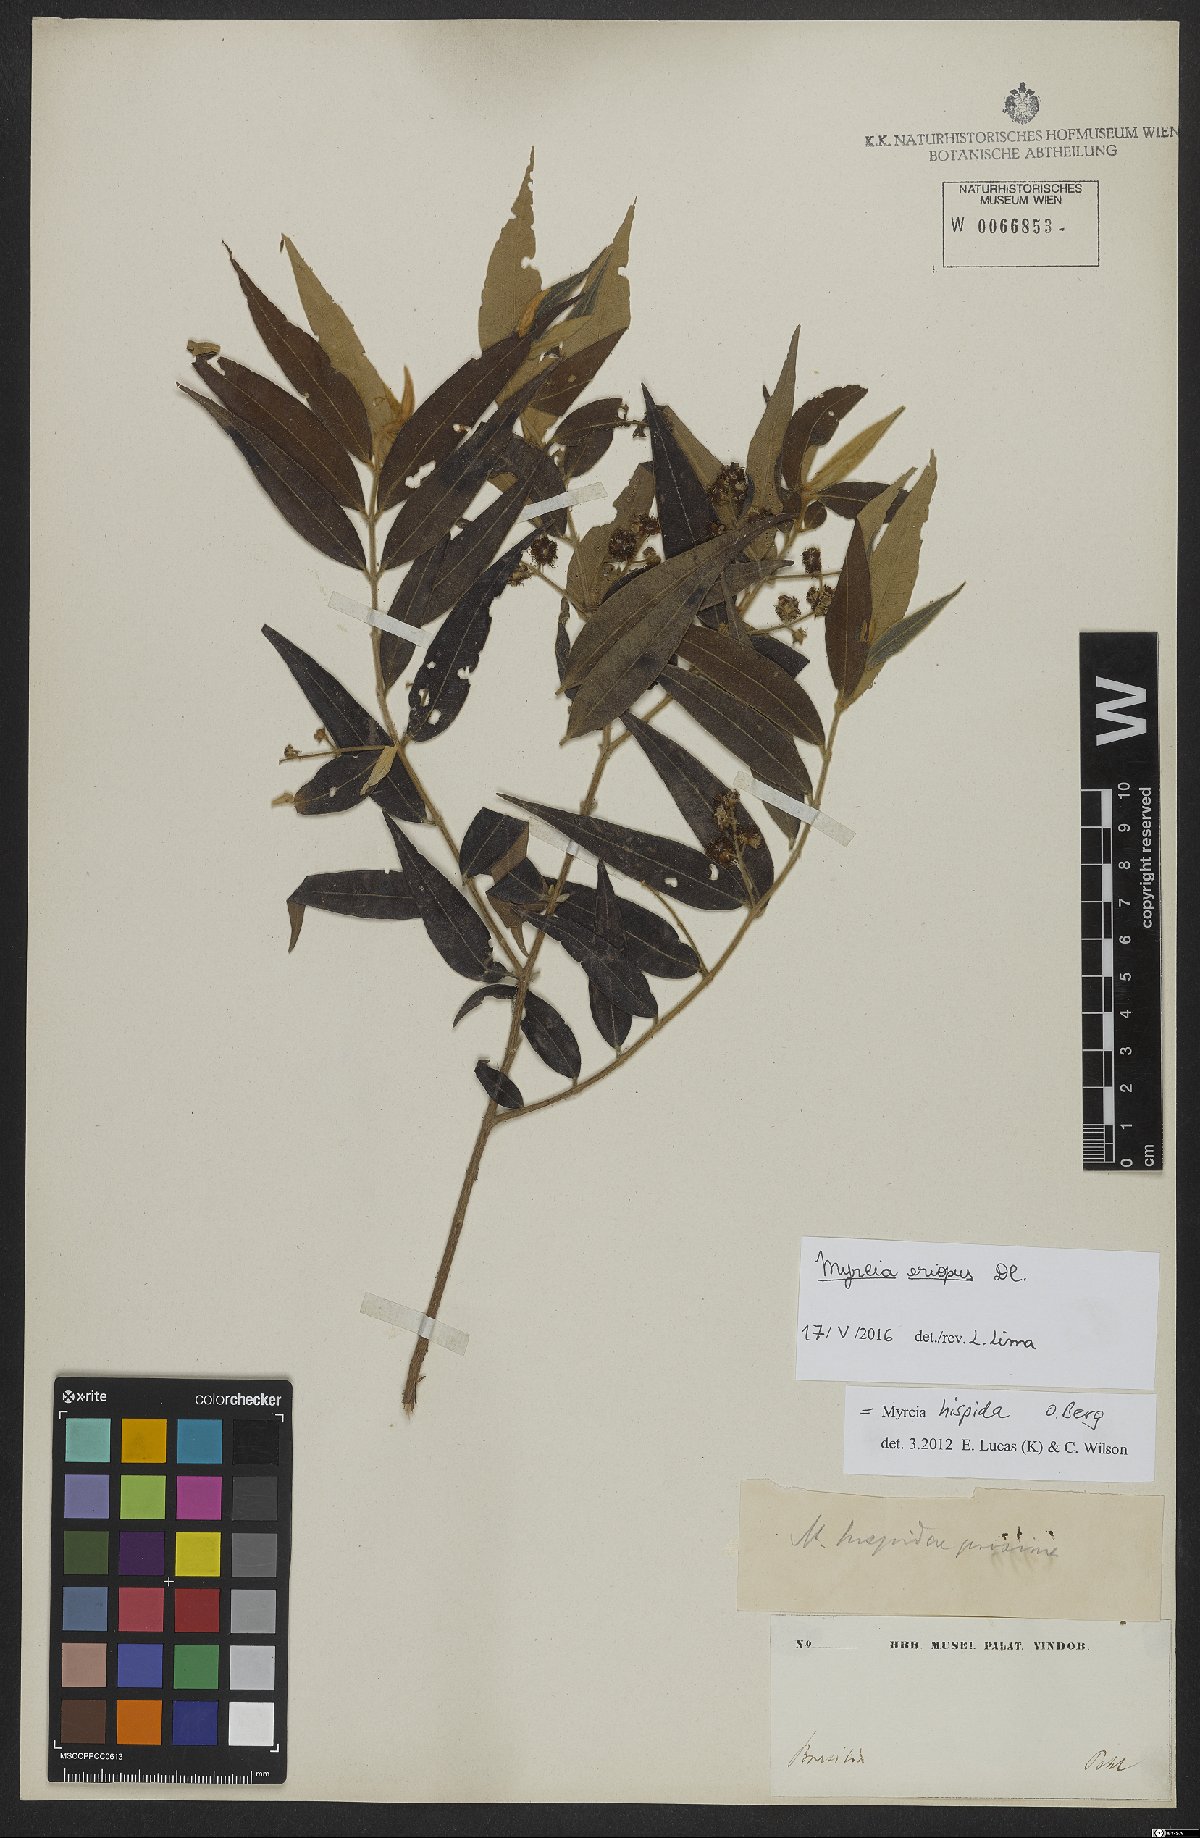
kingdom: Plantae
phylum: Tracheophyta
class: Magnoliopsida
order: Myrtales
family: Myrtaceae
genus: Myrcia
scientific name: Myrcia eriopus
